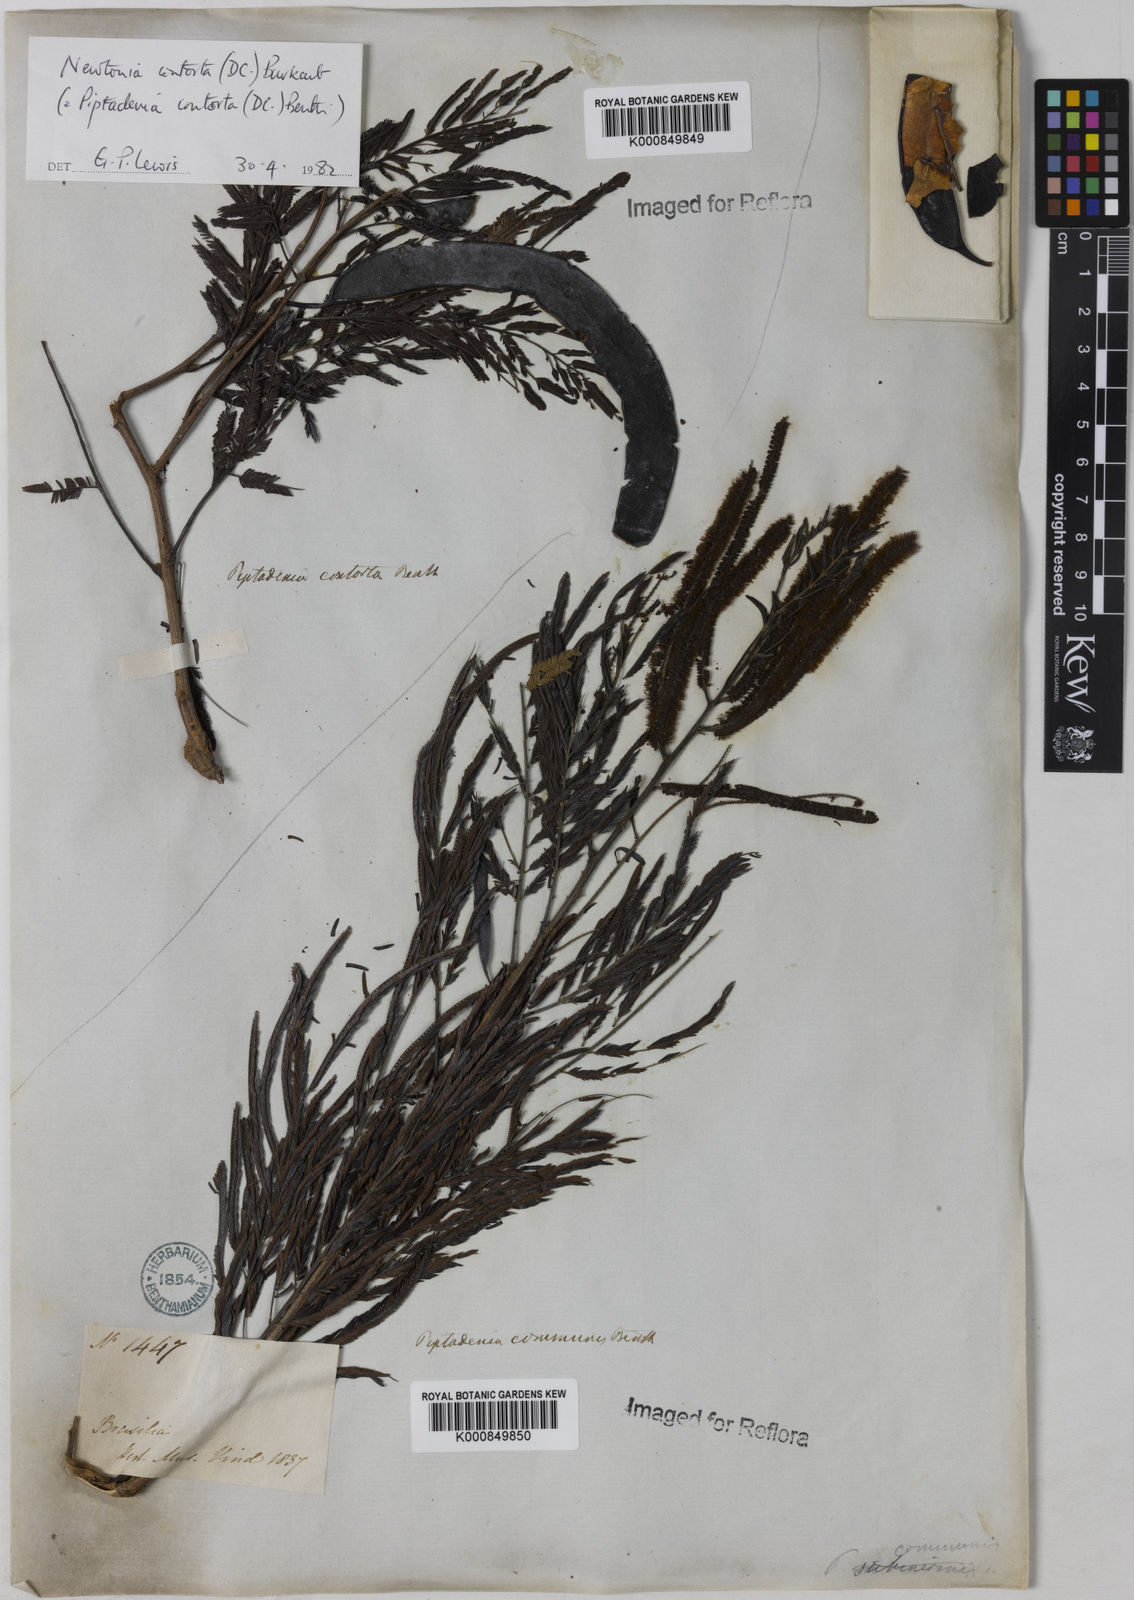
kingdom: Plantae
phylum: Tracheophyta
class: Magnoliopsida
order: Fabales
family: Fabaceae
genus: Piptadenia
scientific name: Piptadenia gonoacantha
